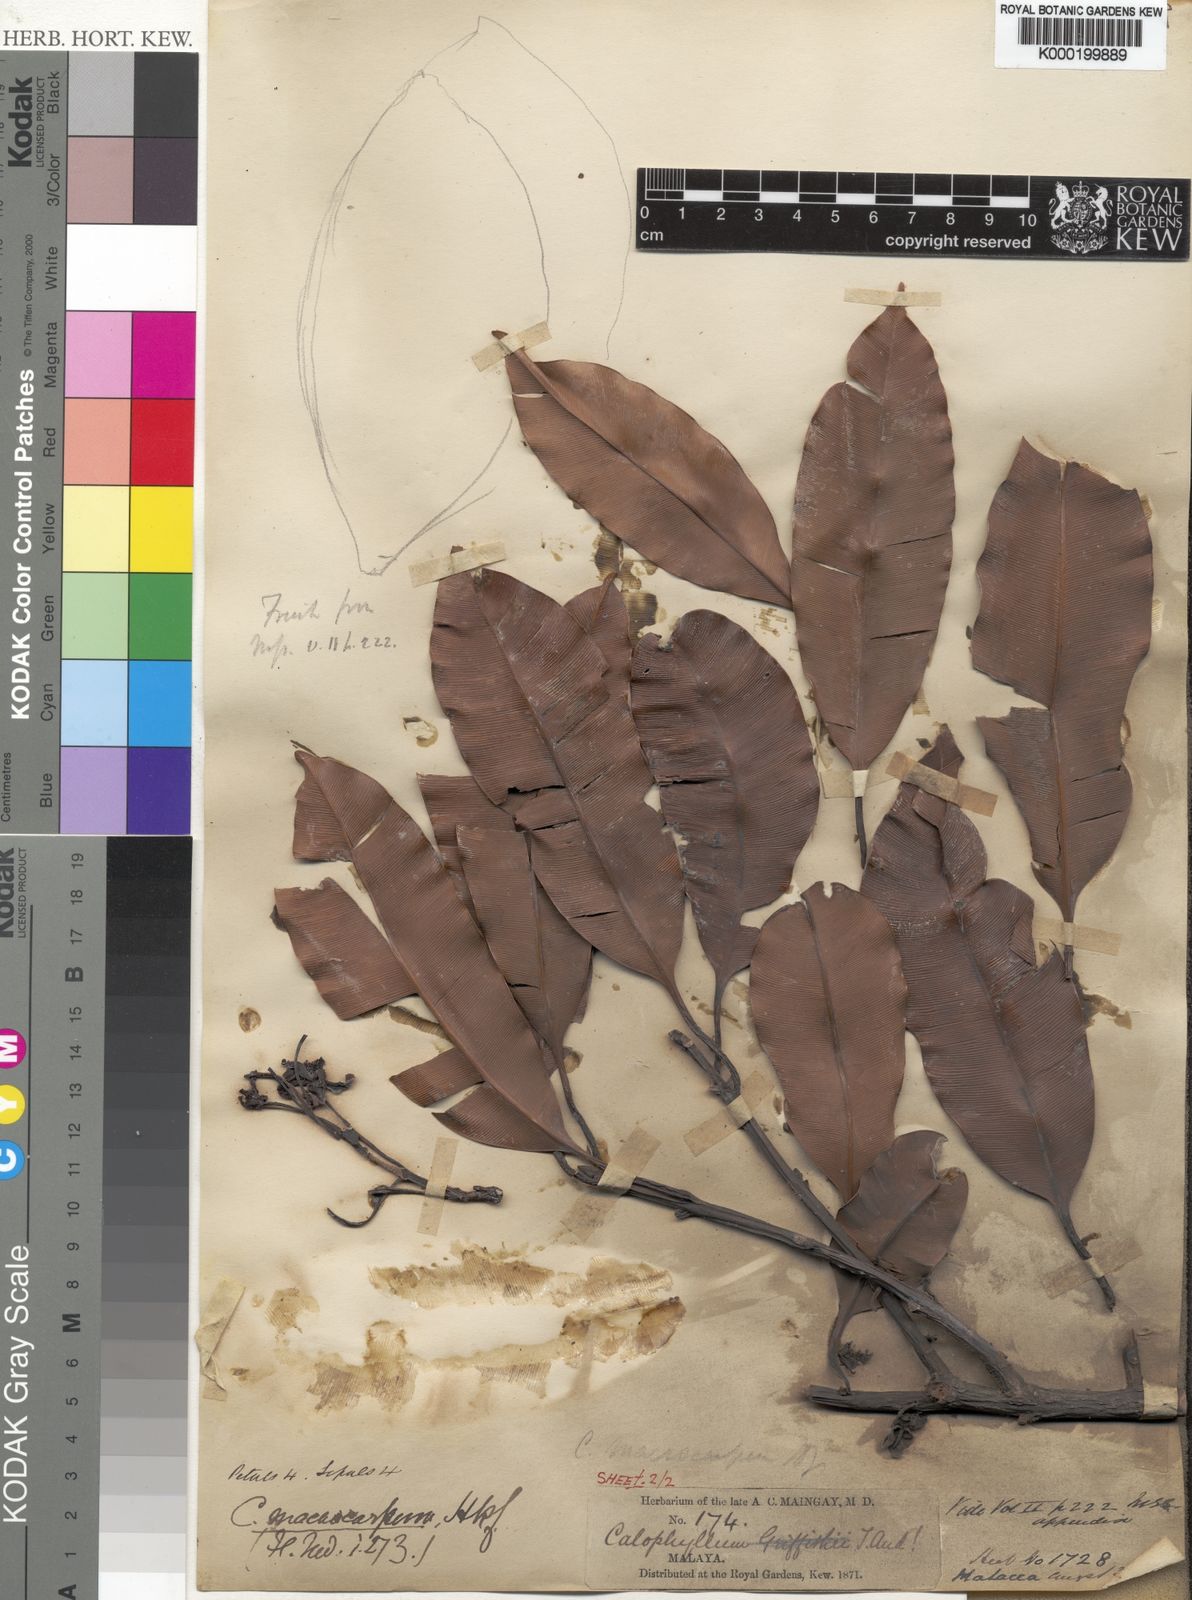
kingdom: Plantae
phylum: Tracheophyta
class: Magnoliopsida
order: Malpighiales
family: Calophyllaceae
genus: Calophyllum
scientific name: Calophyllum macrocarpum
